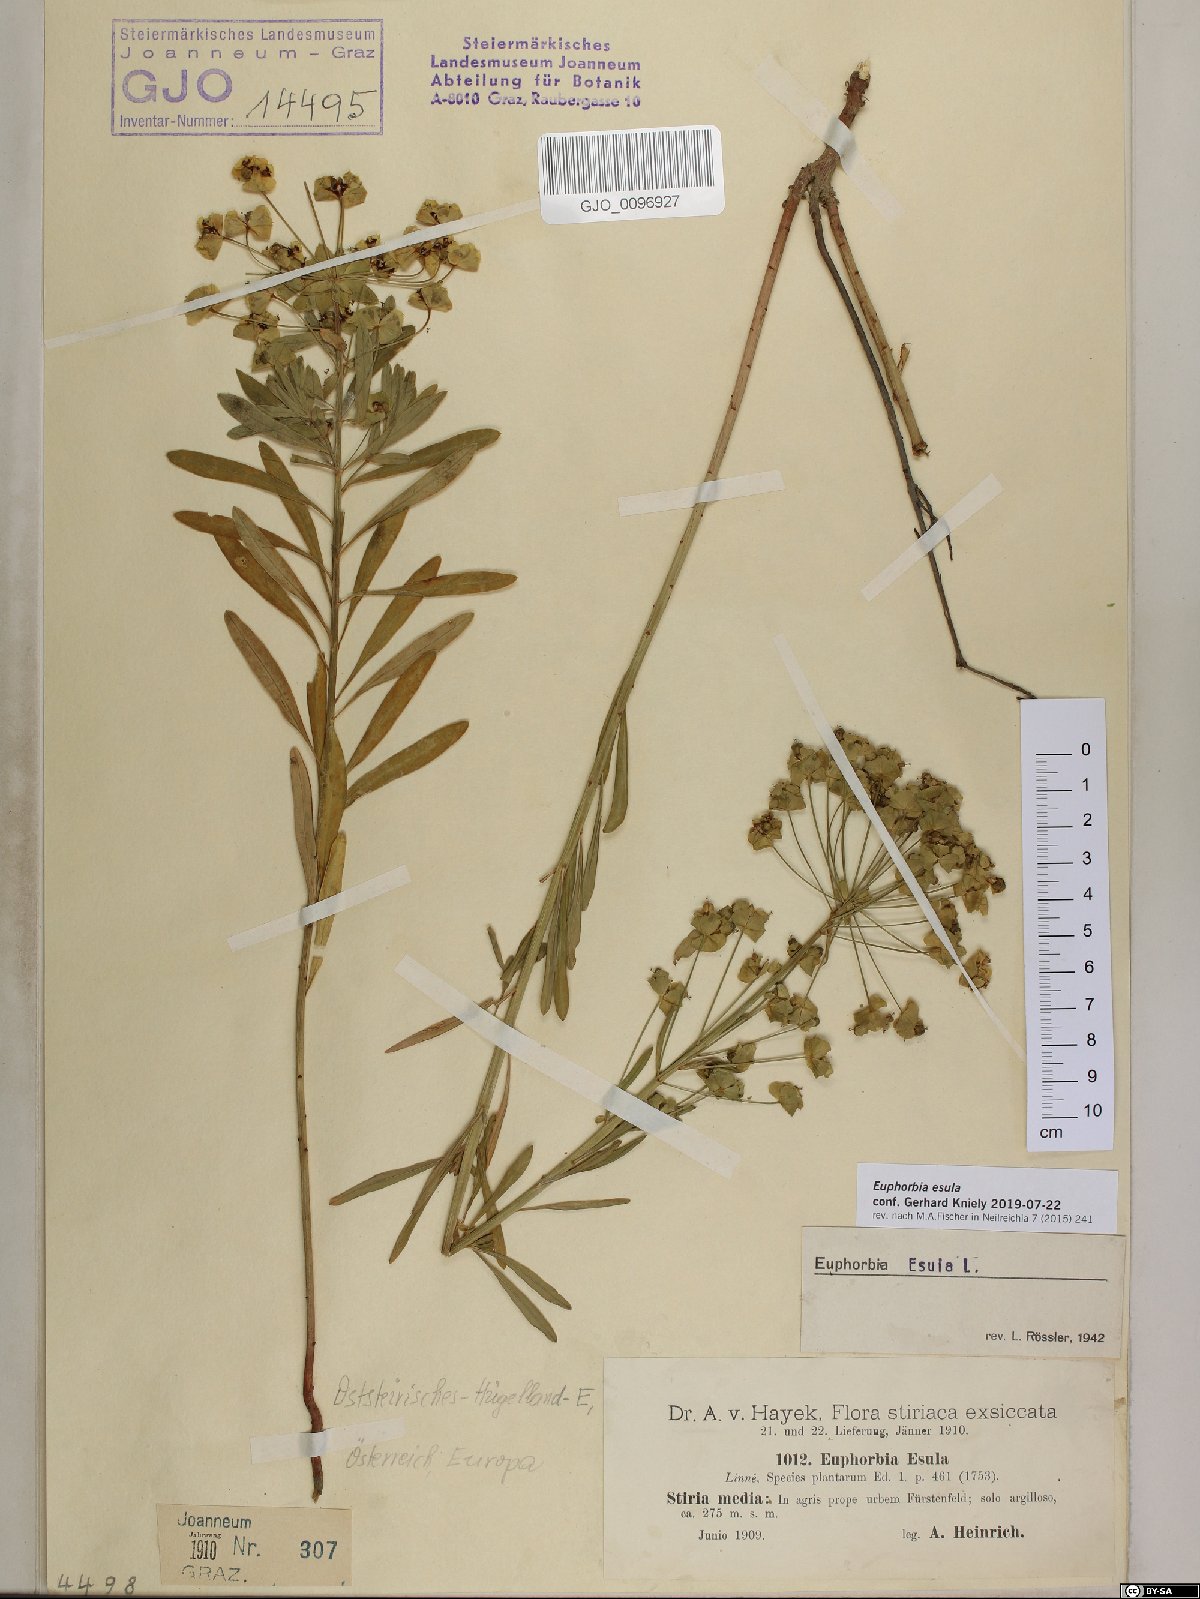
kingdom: Plantae
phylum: Tracheophyta
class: Magnoliopsida
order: Malpighiales
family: Euphorbiaceae
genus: Euphorbia
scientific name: Euphorbia esula
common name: Leafy spurge
